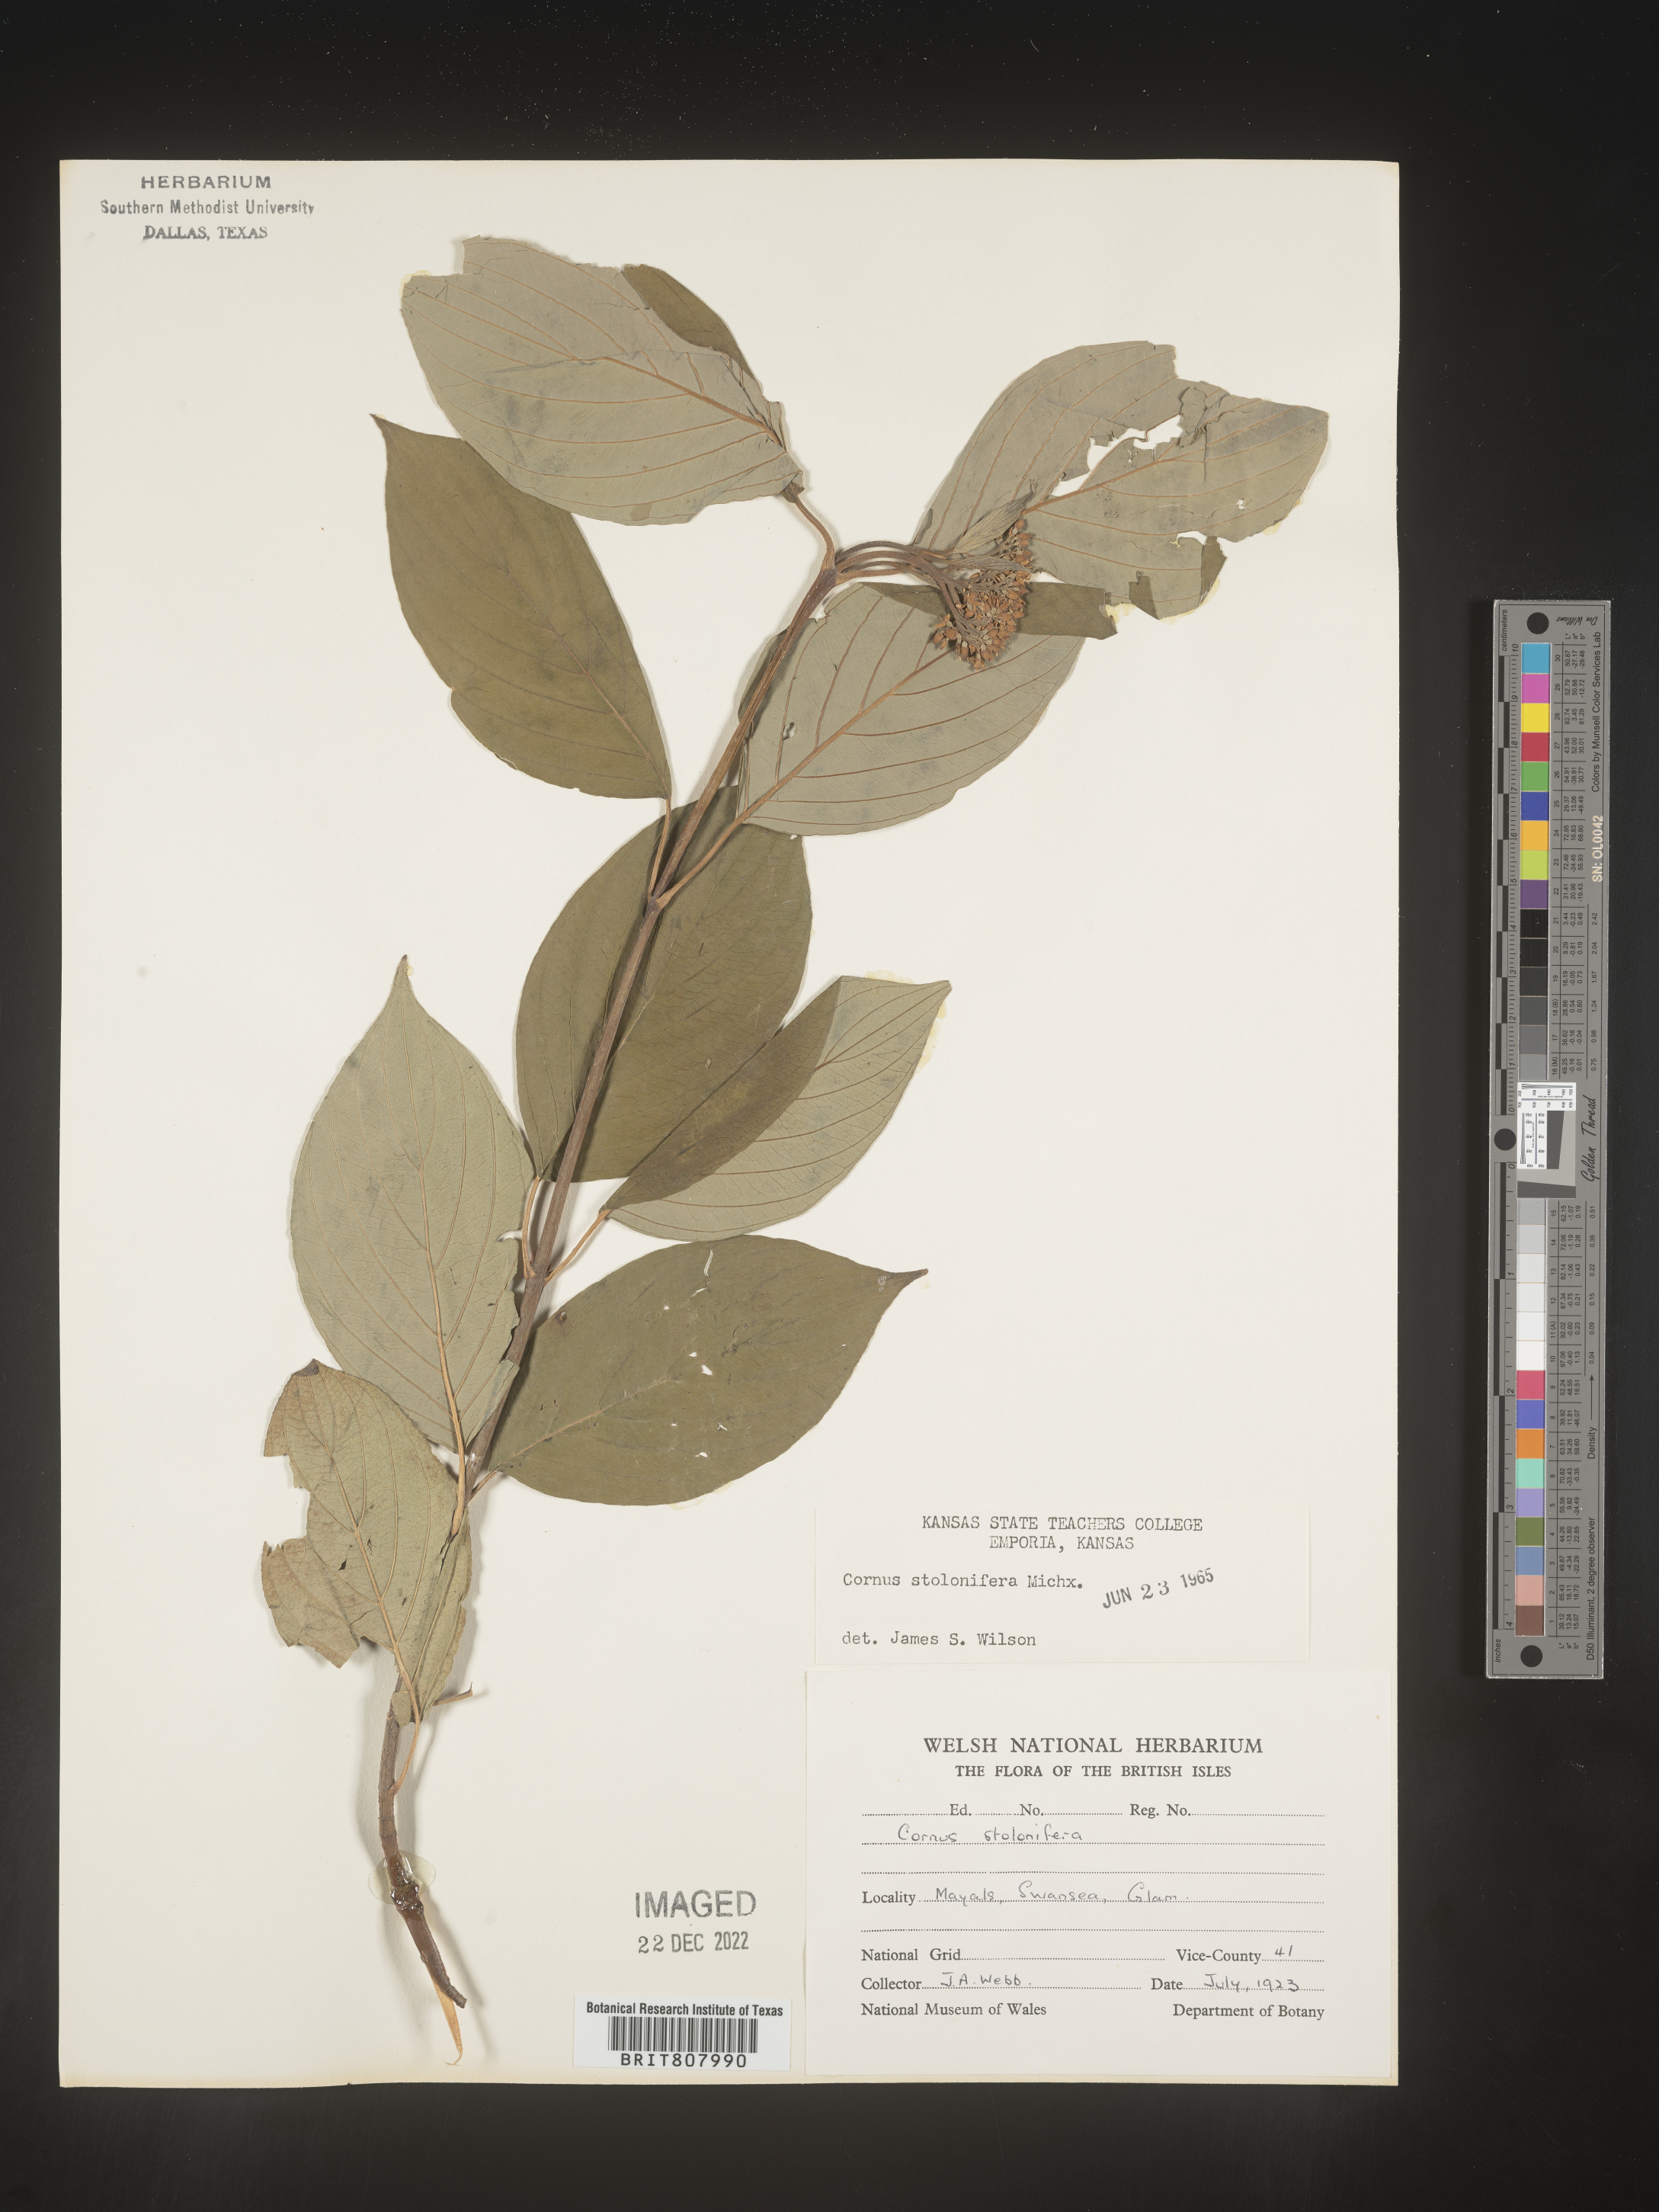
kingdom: Plantae
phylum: Tracheophyta
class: Magnoliopsida
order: Cornales
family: Cornaceae
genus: Cornus
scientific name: Cornus
